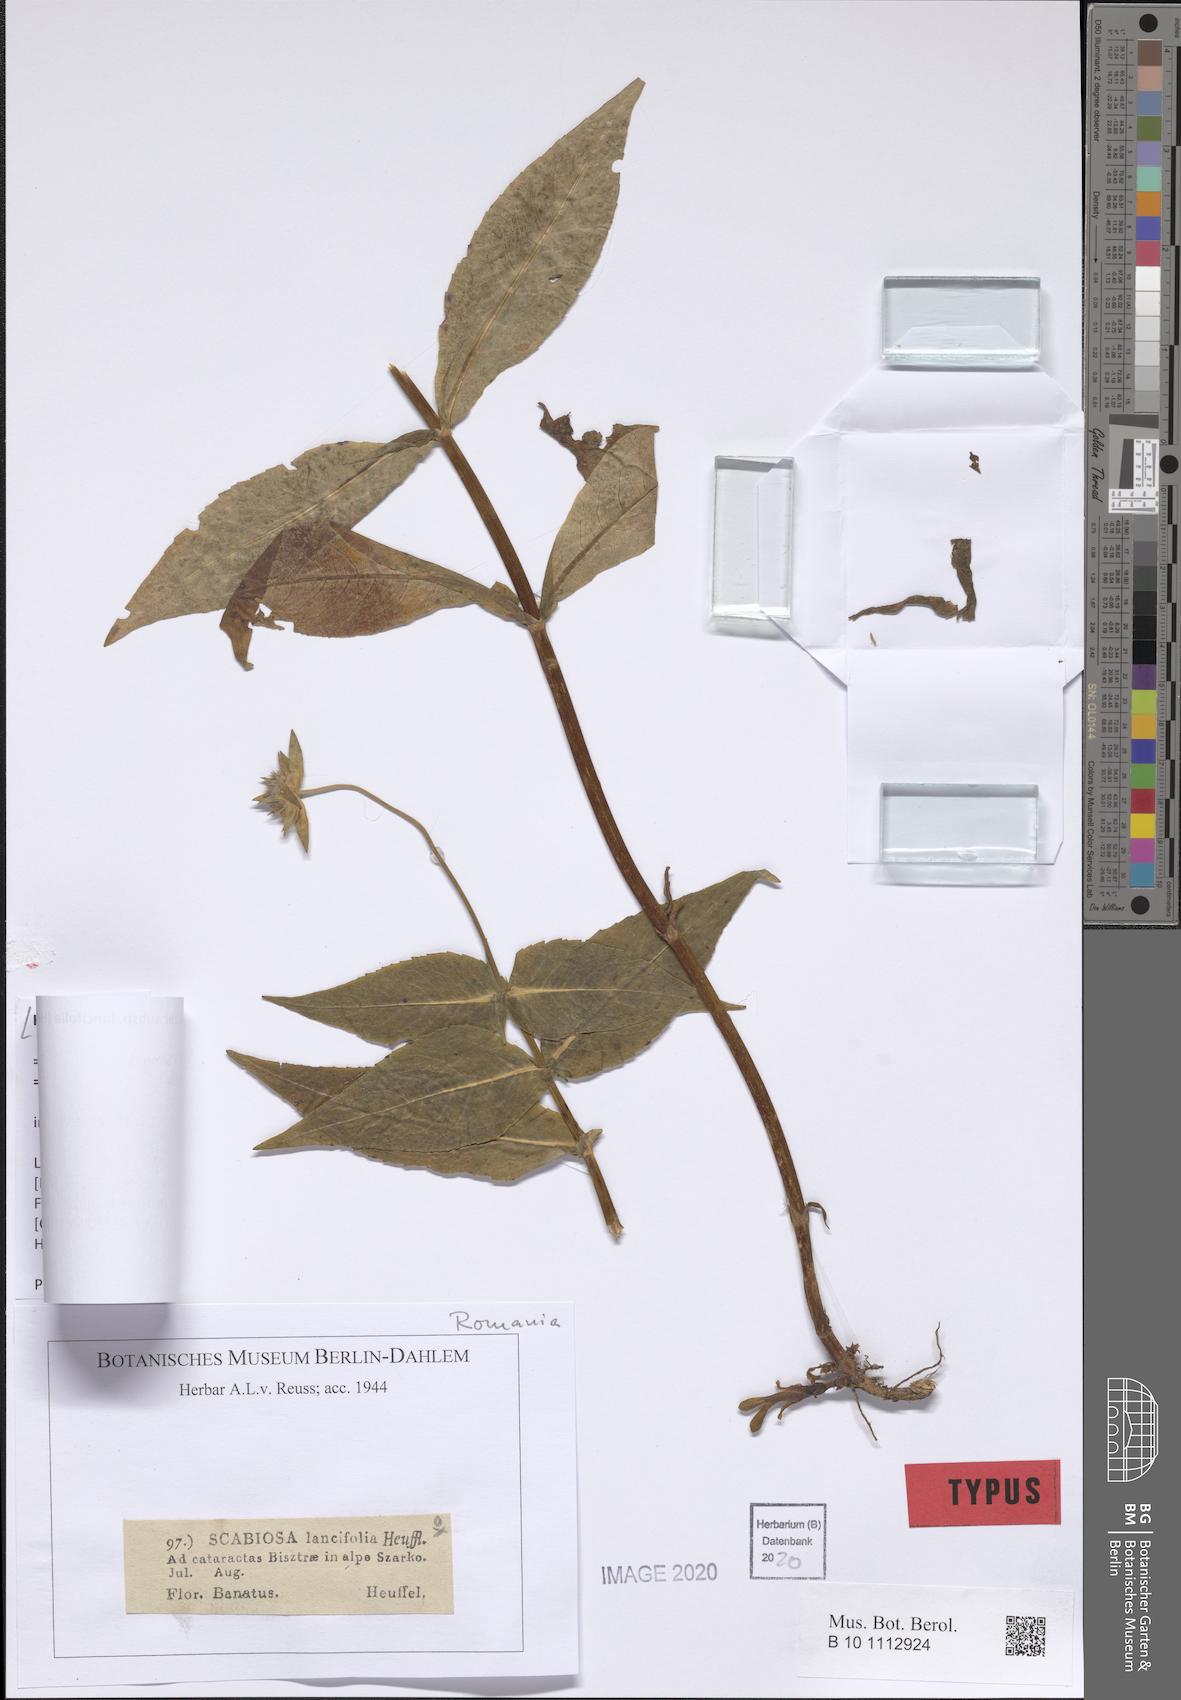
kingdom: Plantae
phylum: Tracheophyta
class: Magnoliopsida
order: Dipsacales
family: Caprifoliaceae
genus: Knautia
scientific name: Knautia dipsacifolia
